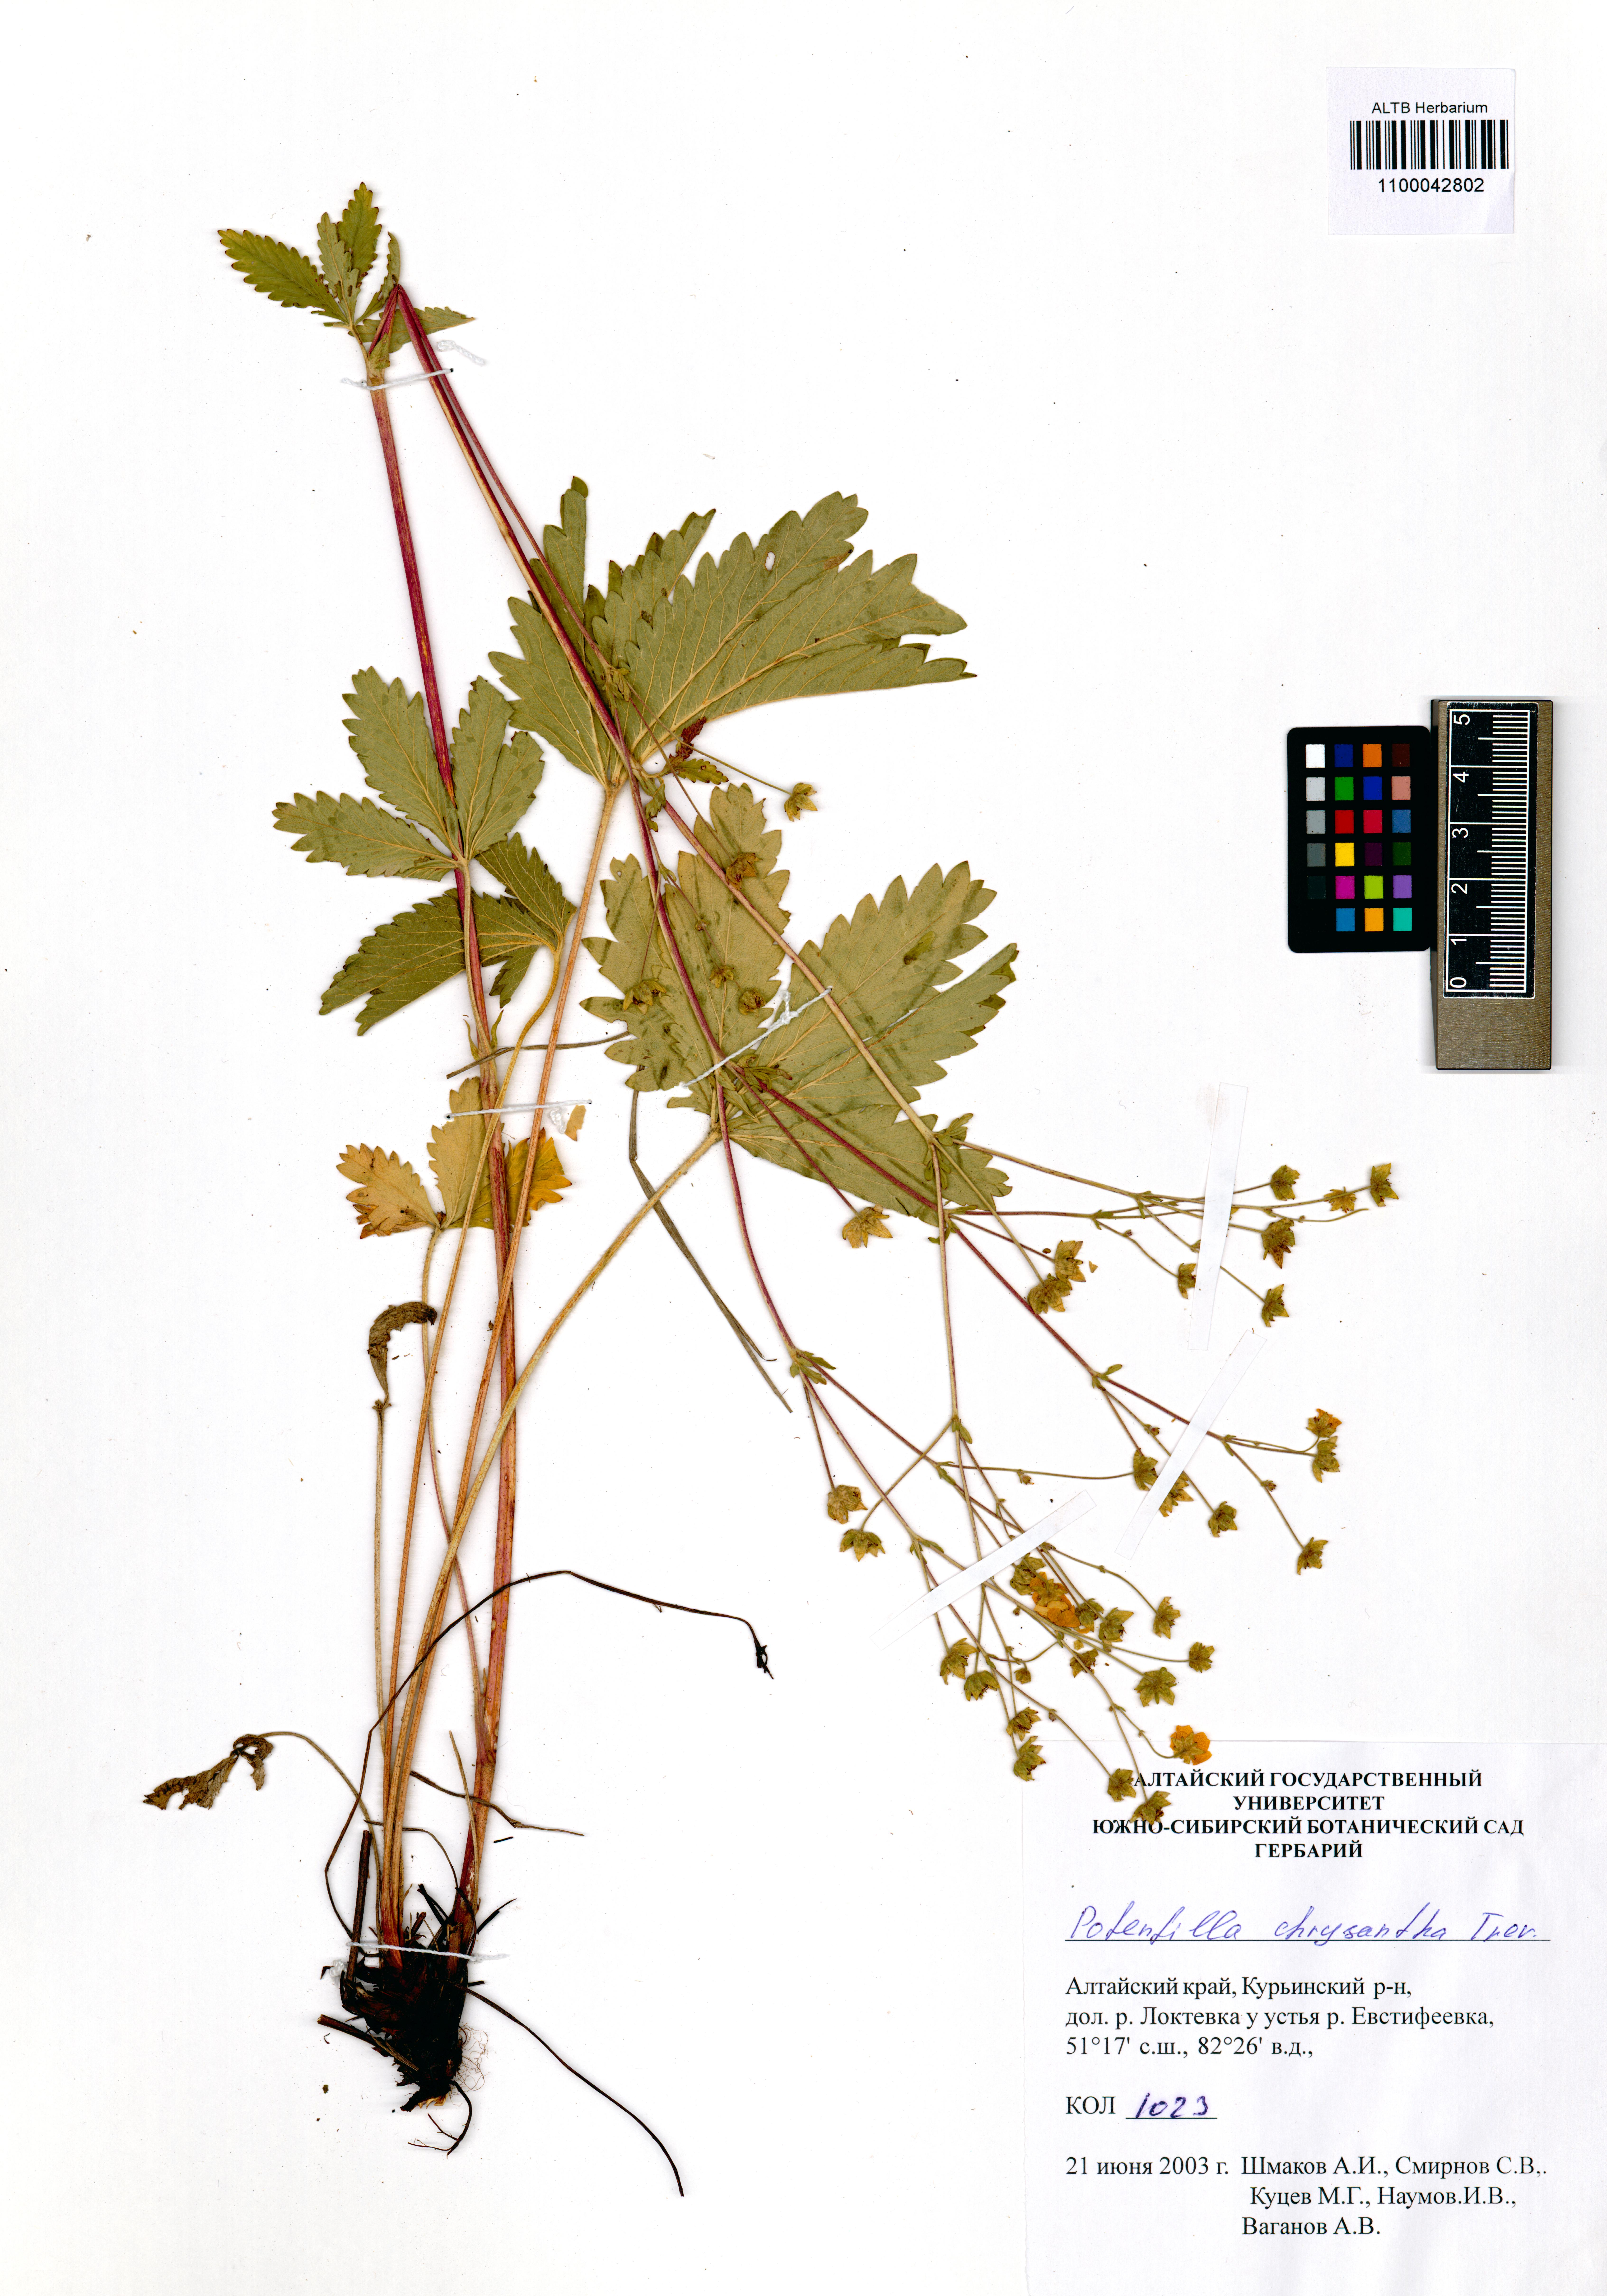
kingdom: Plantae
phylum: Tracheophyta
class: Magnoliopsida
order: Rosales
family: Rosaceae
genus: Potentilla
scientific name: Potentilla chrysantha
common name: Thuringian cinquefoil
